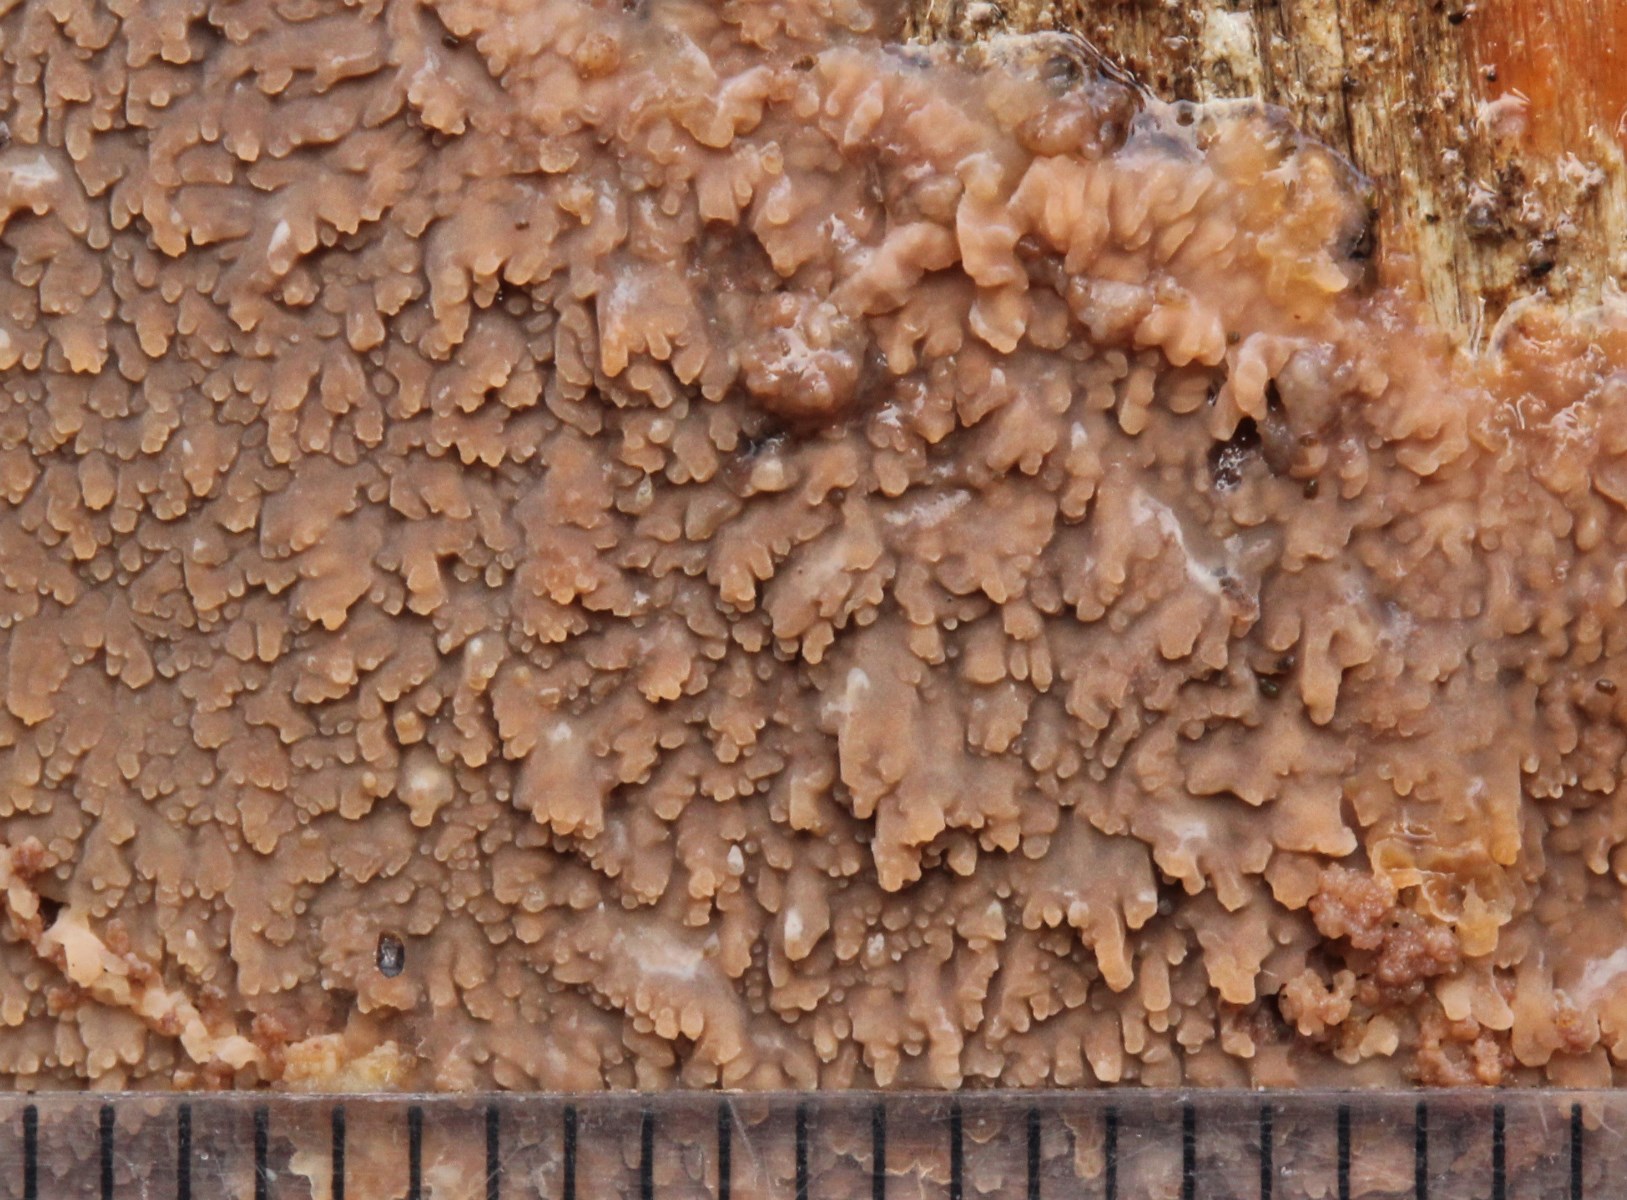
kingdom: Fungi
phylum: Basidiomycota
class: Agaricomycetes
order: Polyporales
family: Meruliaceae
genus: Phlebia
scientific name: Phlebia radiata
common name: stråle-åresvamp
